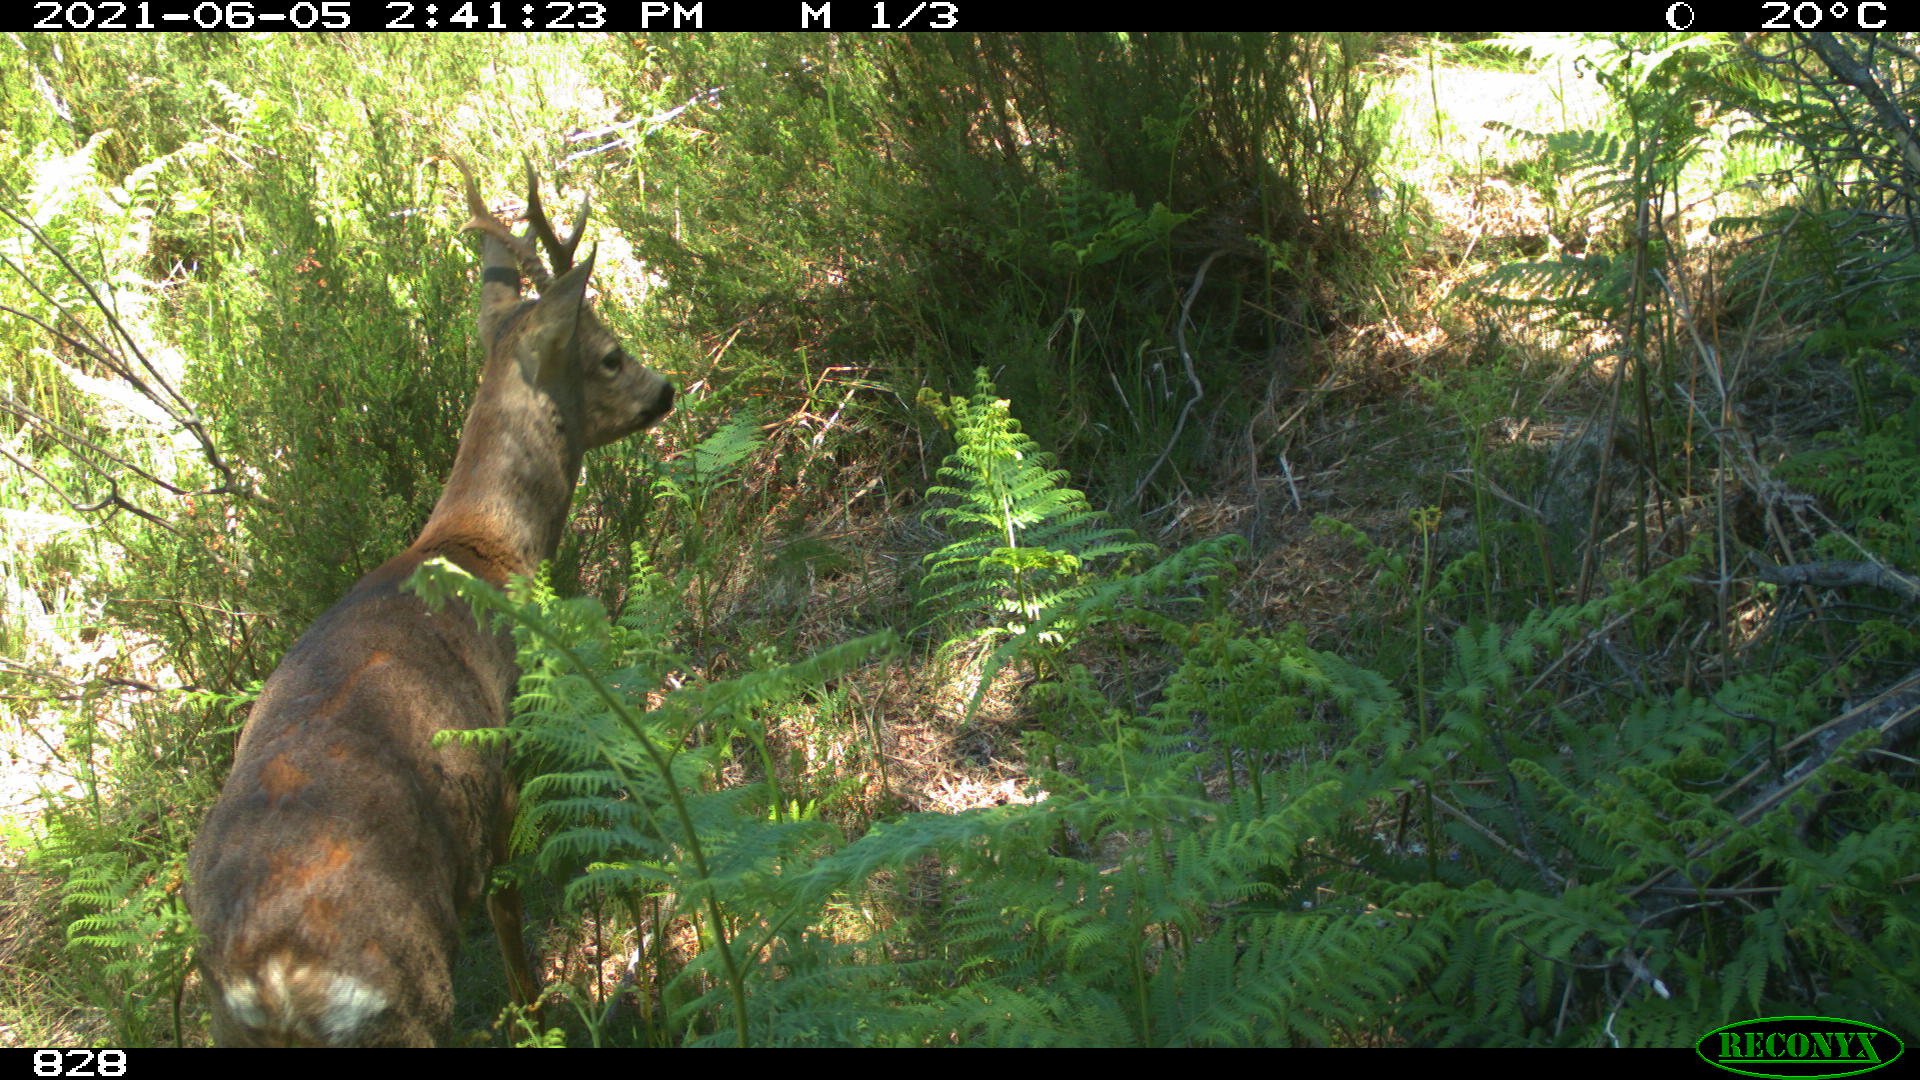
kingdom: Animalia
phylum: Chordata
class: Mammalia
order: Artiodactyla
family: Cervidae
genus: Capreolus
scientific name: Capreolus capreolus
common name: Western roe deer
